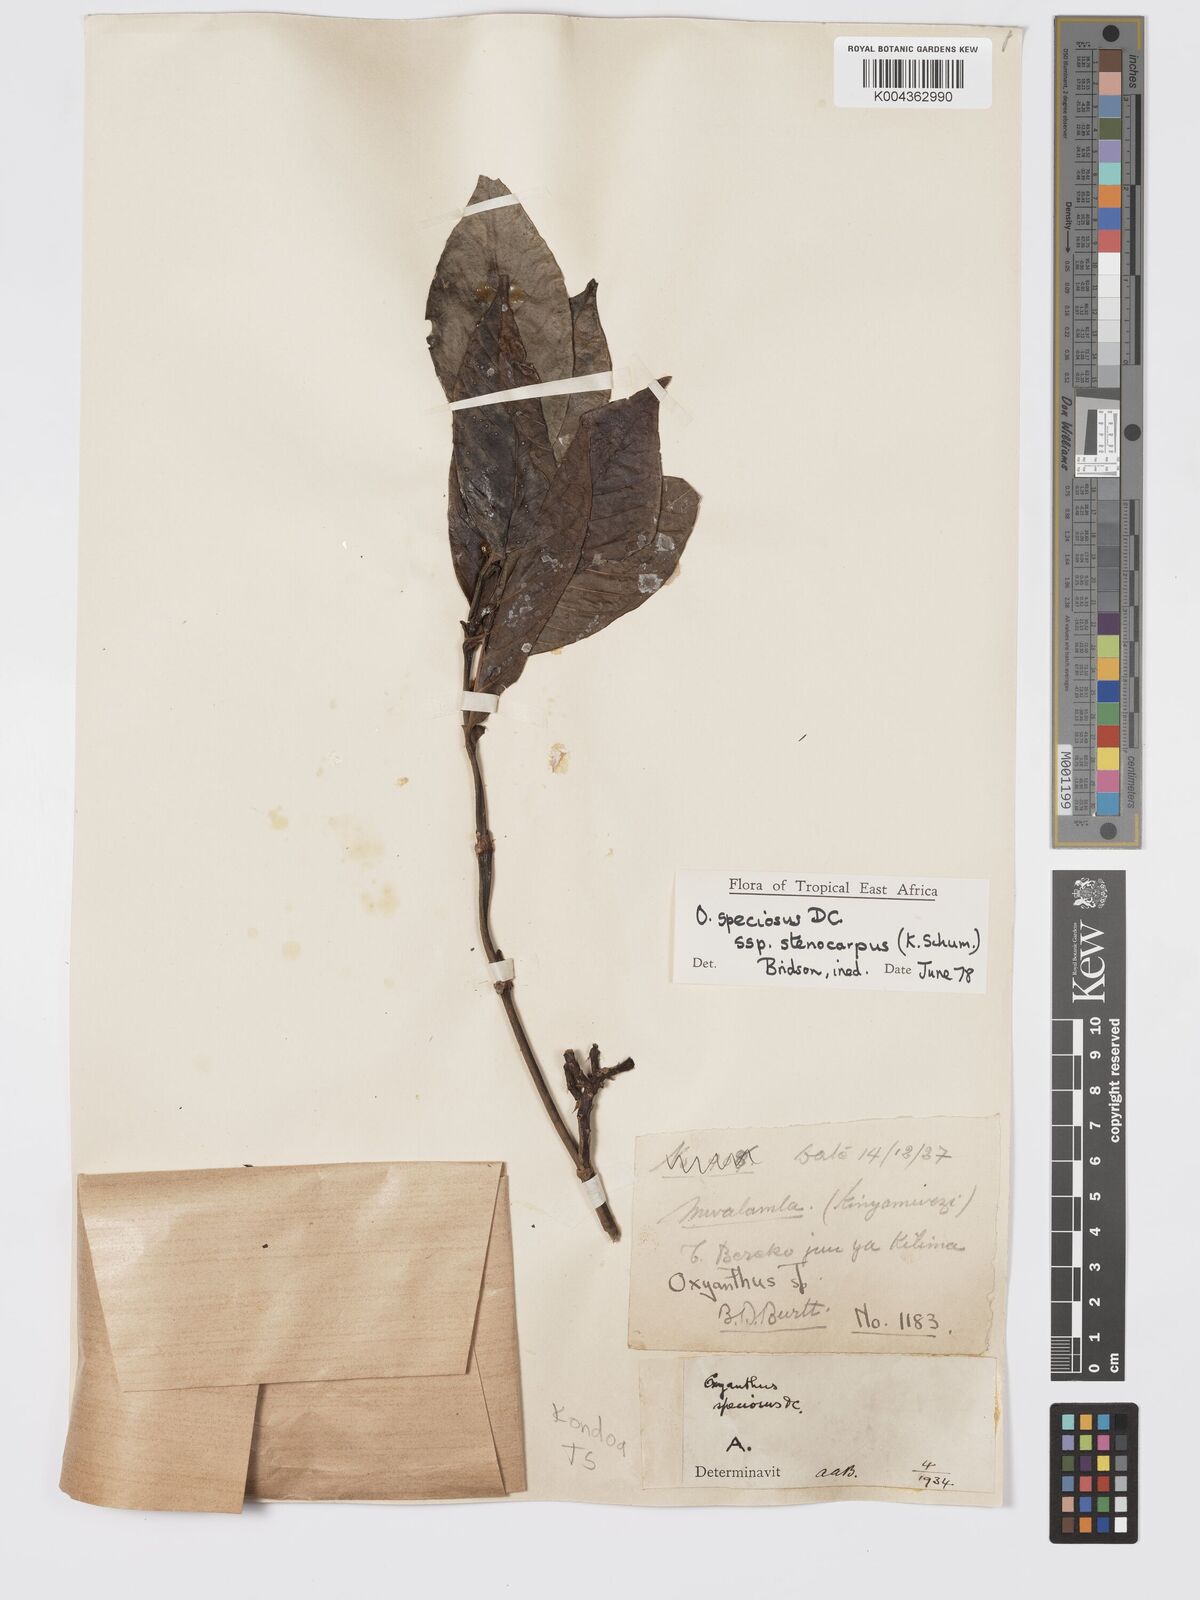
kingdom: Plantae
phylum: Tracheophyta
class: Magnoliopsida
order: Gentianales
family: Rubiaceae
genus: Oxyanthus
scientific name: Oxyanthus speciosus
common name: Whipstick loquat
